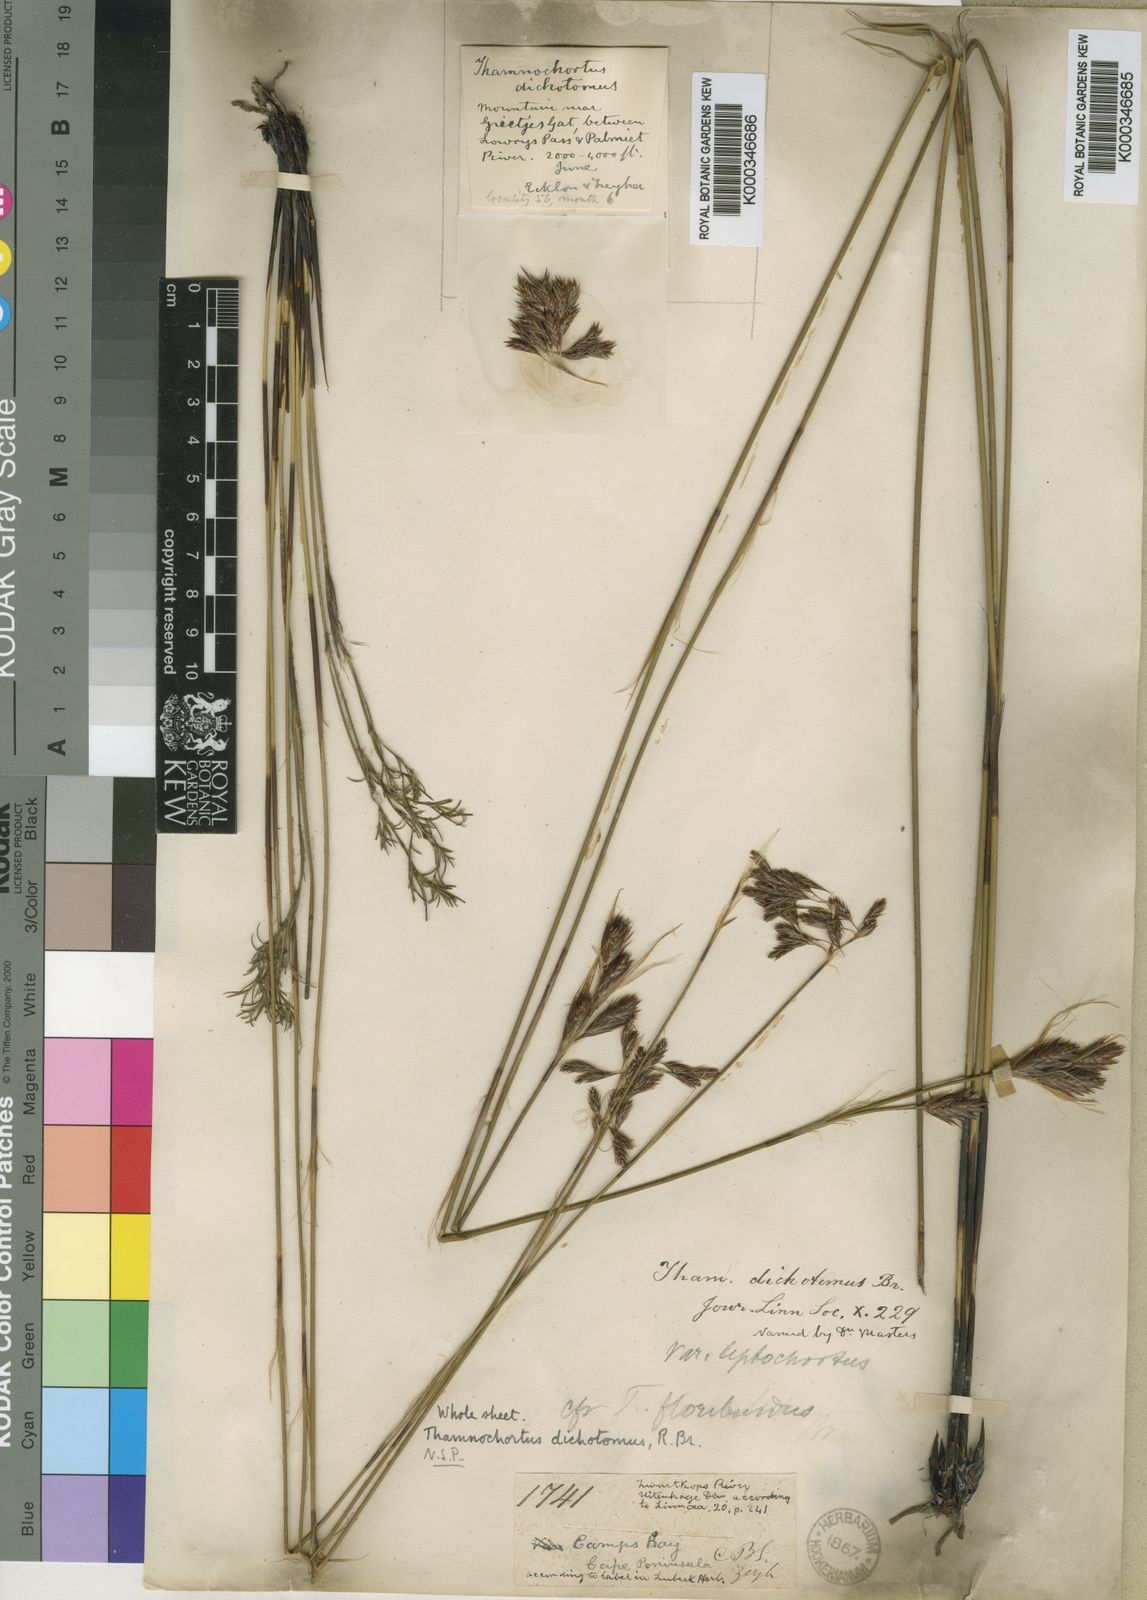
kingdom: Plantae
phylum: Tracheophyta
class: Liliopsida
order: Poales
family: Restionaceae
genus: Thamnochortus
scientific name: Thamnochortus
